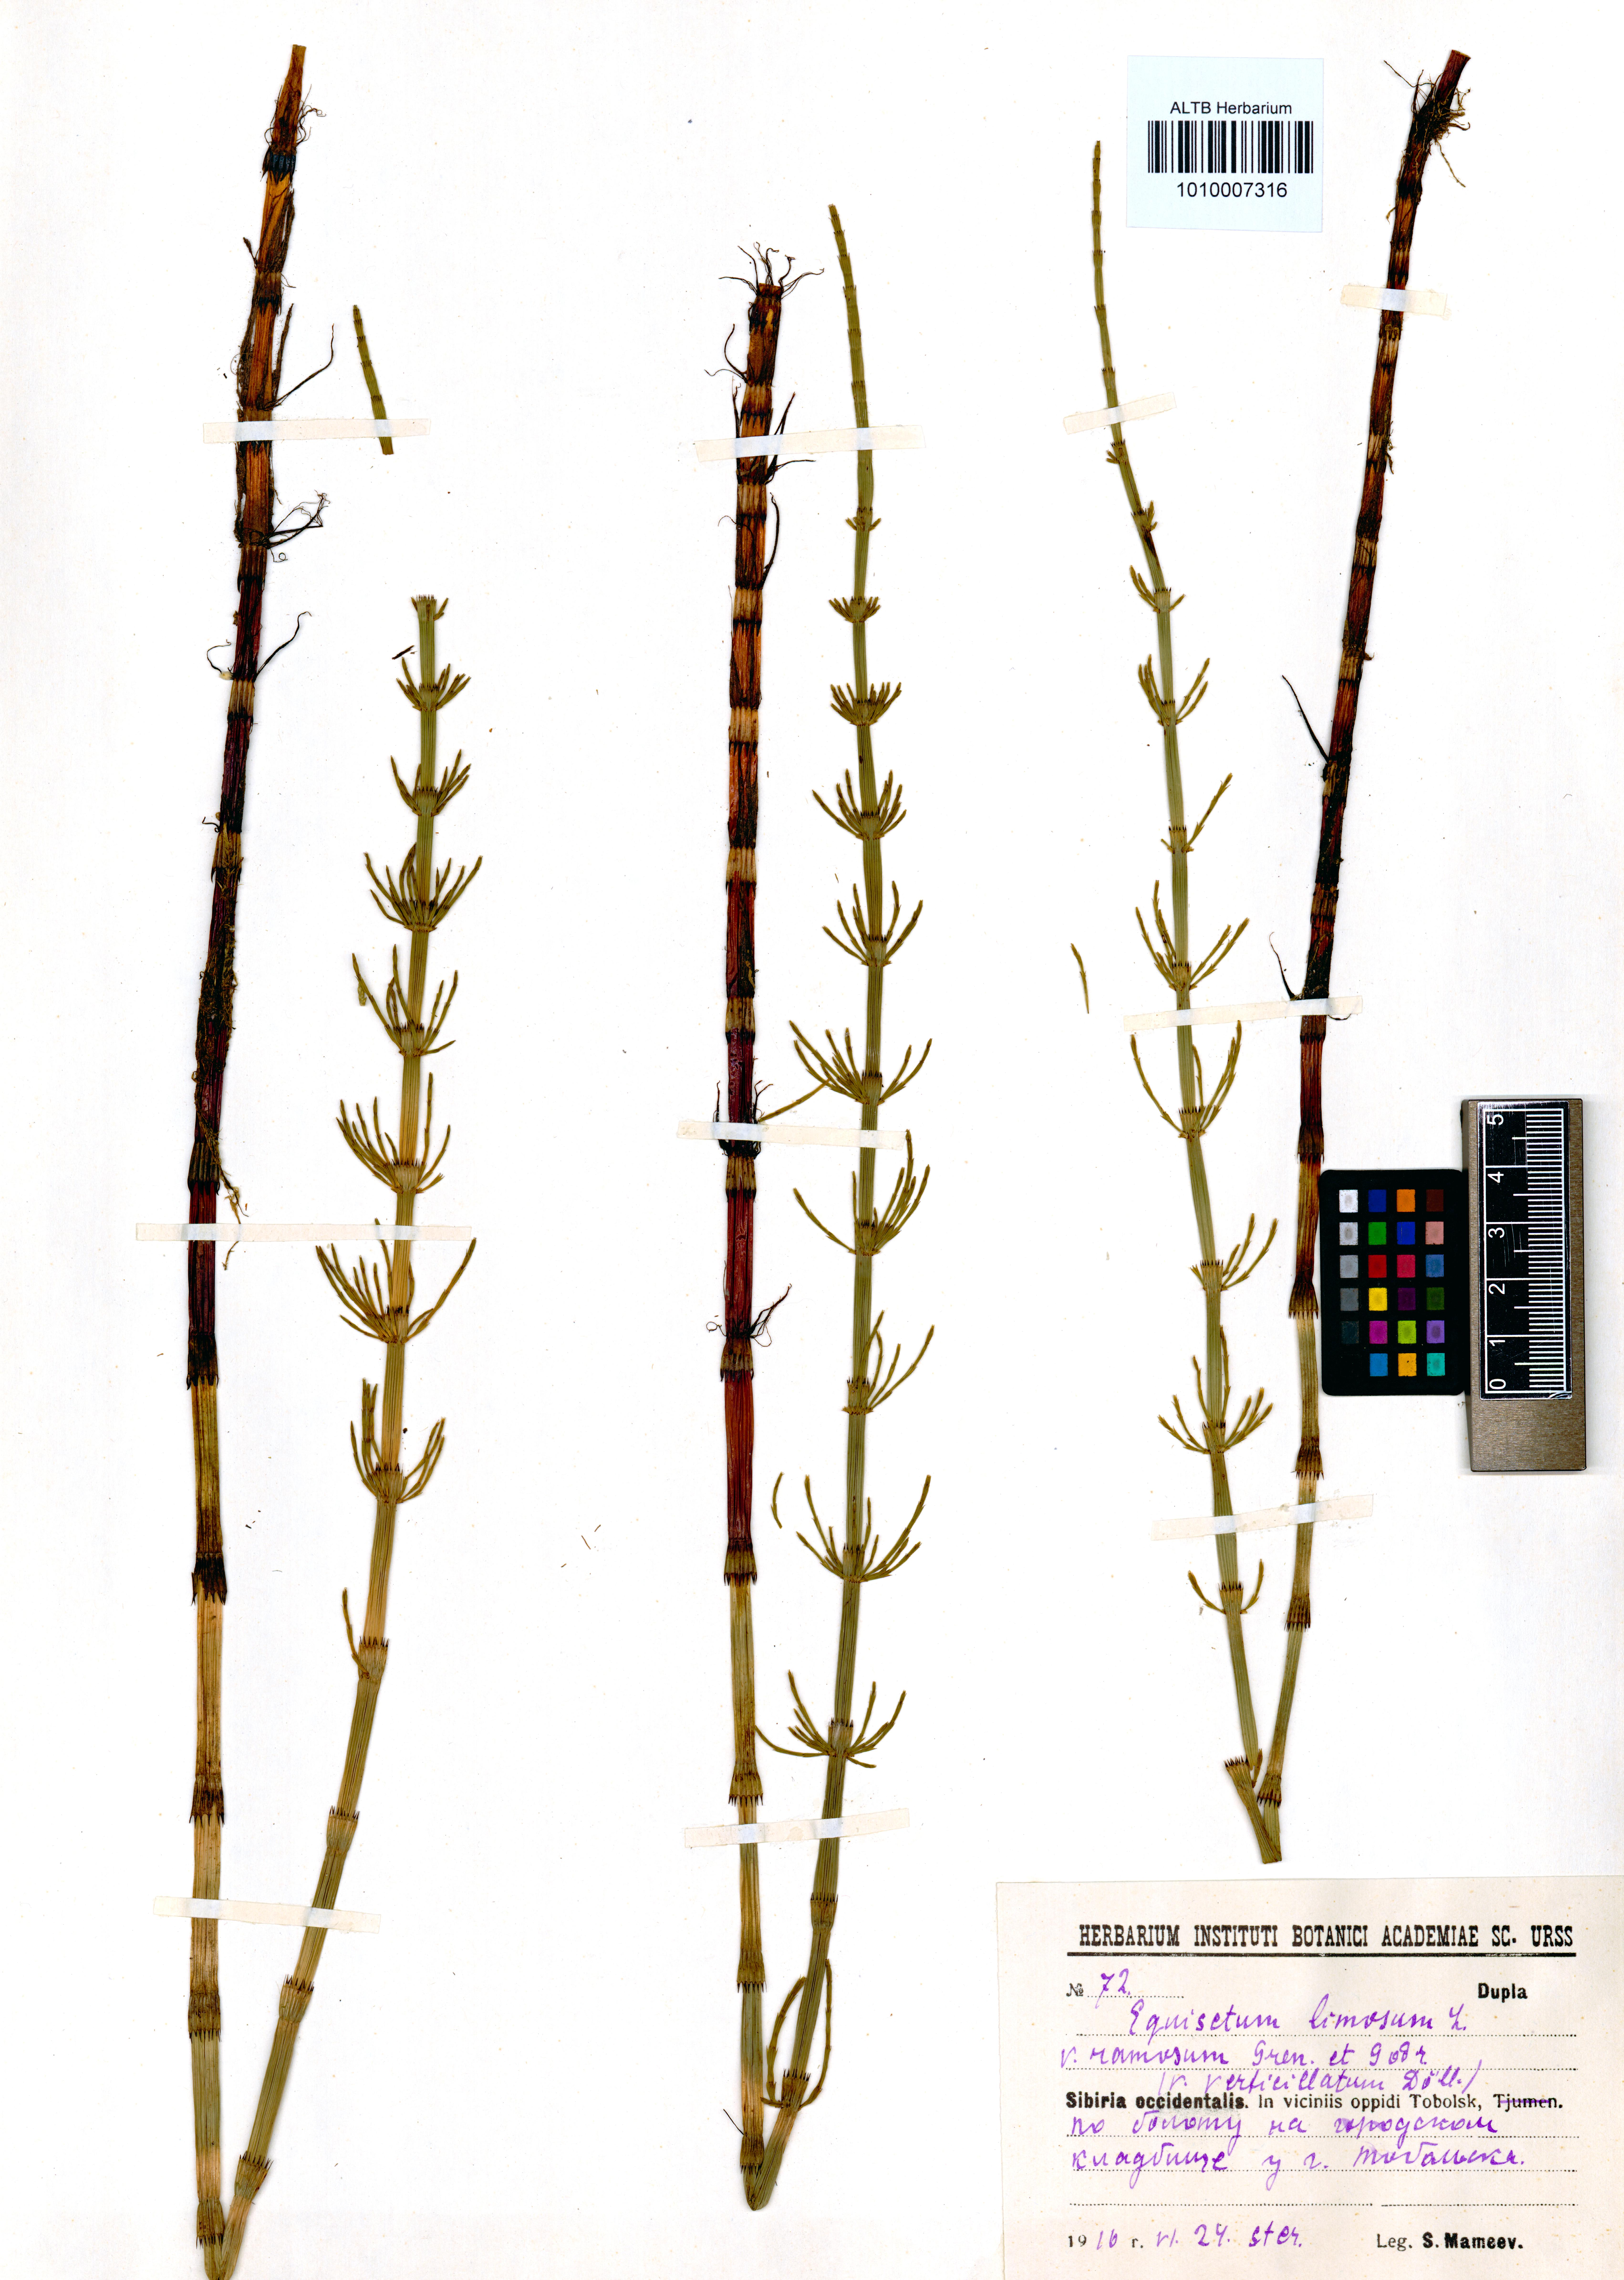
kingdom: Plantae
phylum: Tracheophyta
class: Polypodiopsida
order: Equisetales
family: Equisetaceae
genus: Equisetum
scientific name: Equisetum fluviatile
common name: Water horsetail
